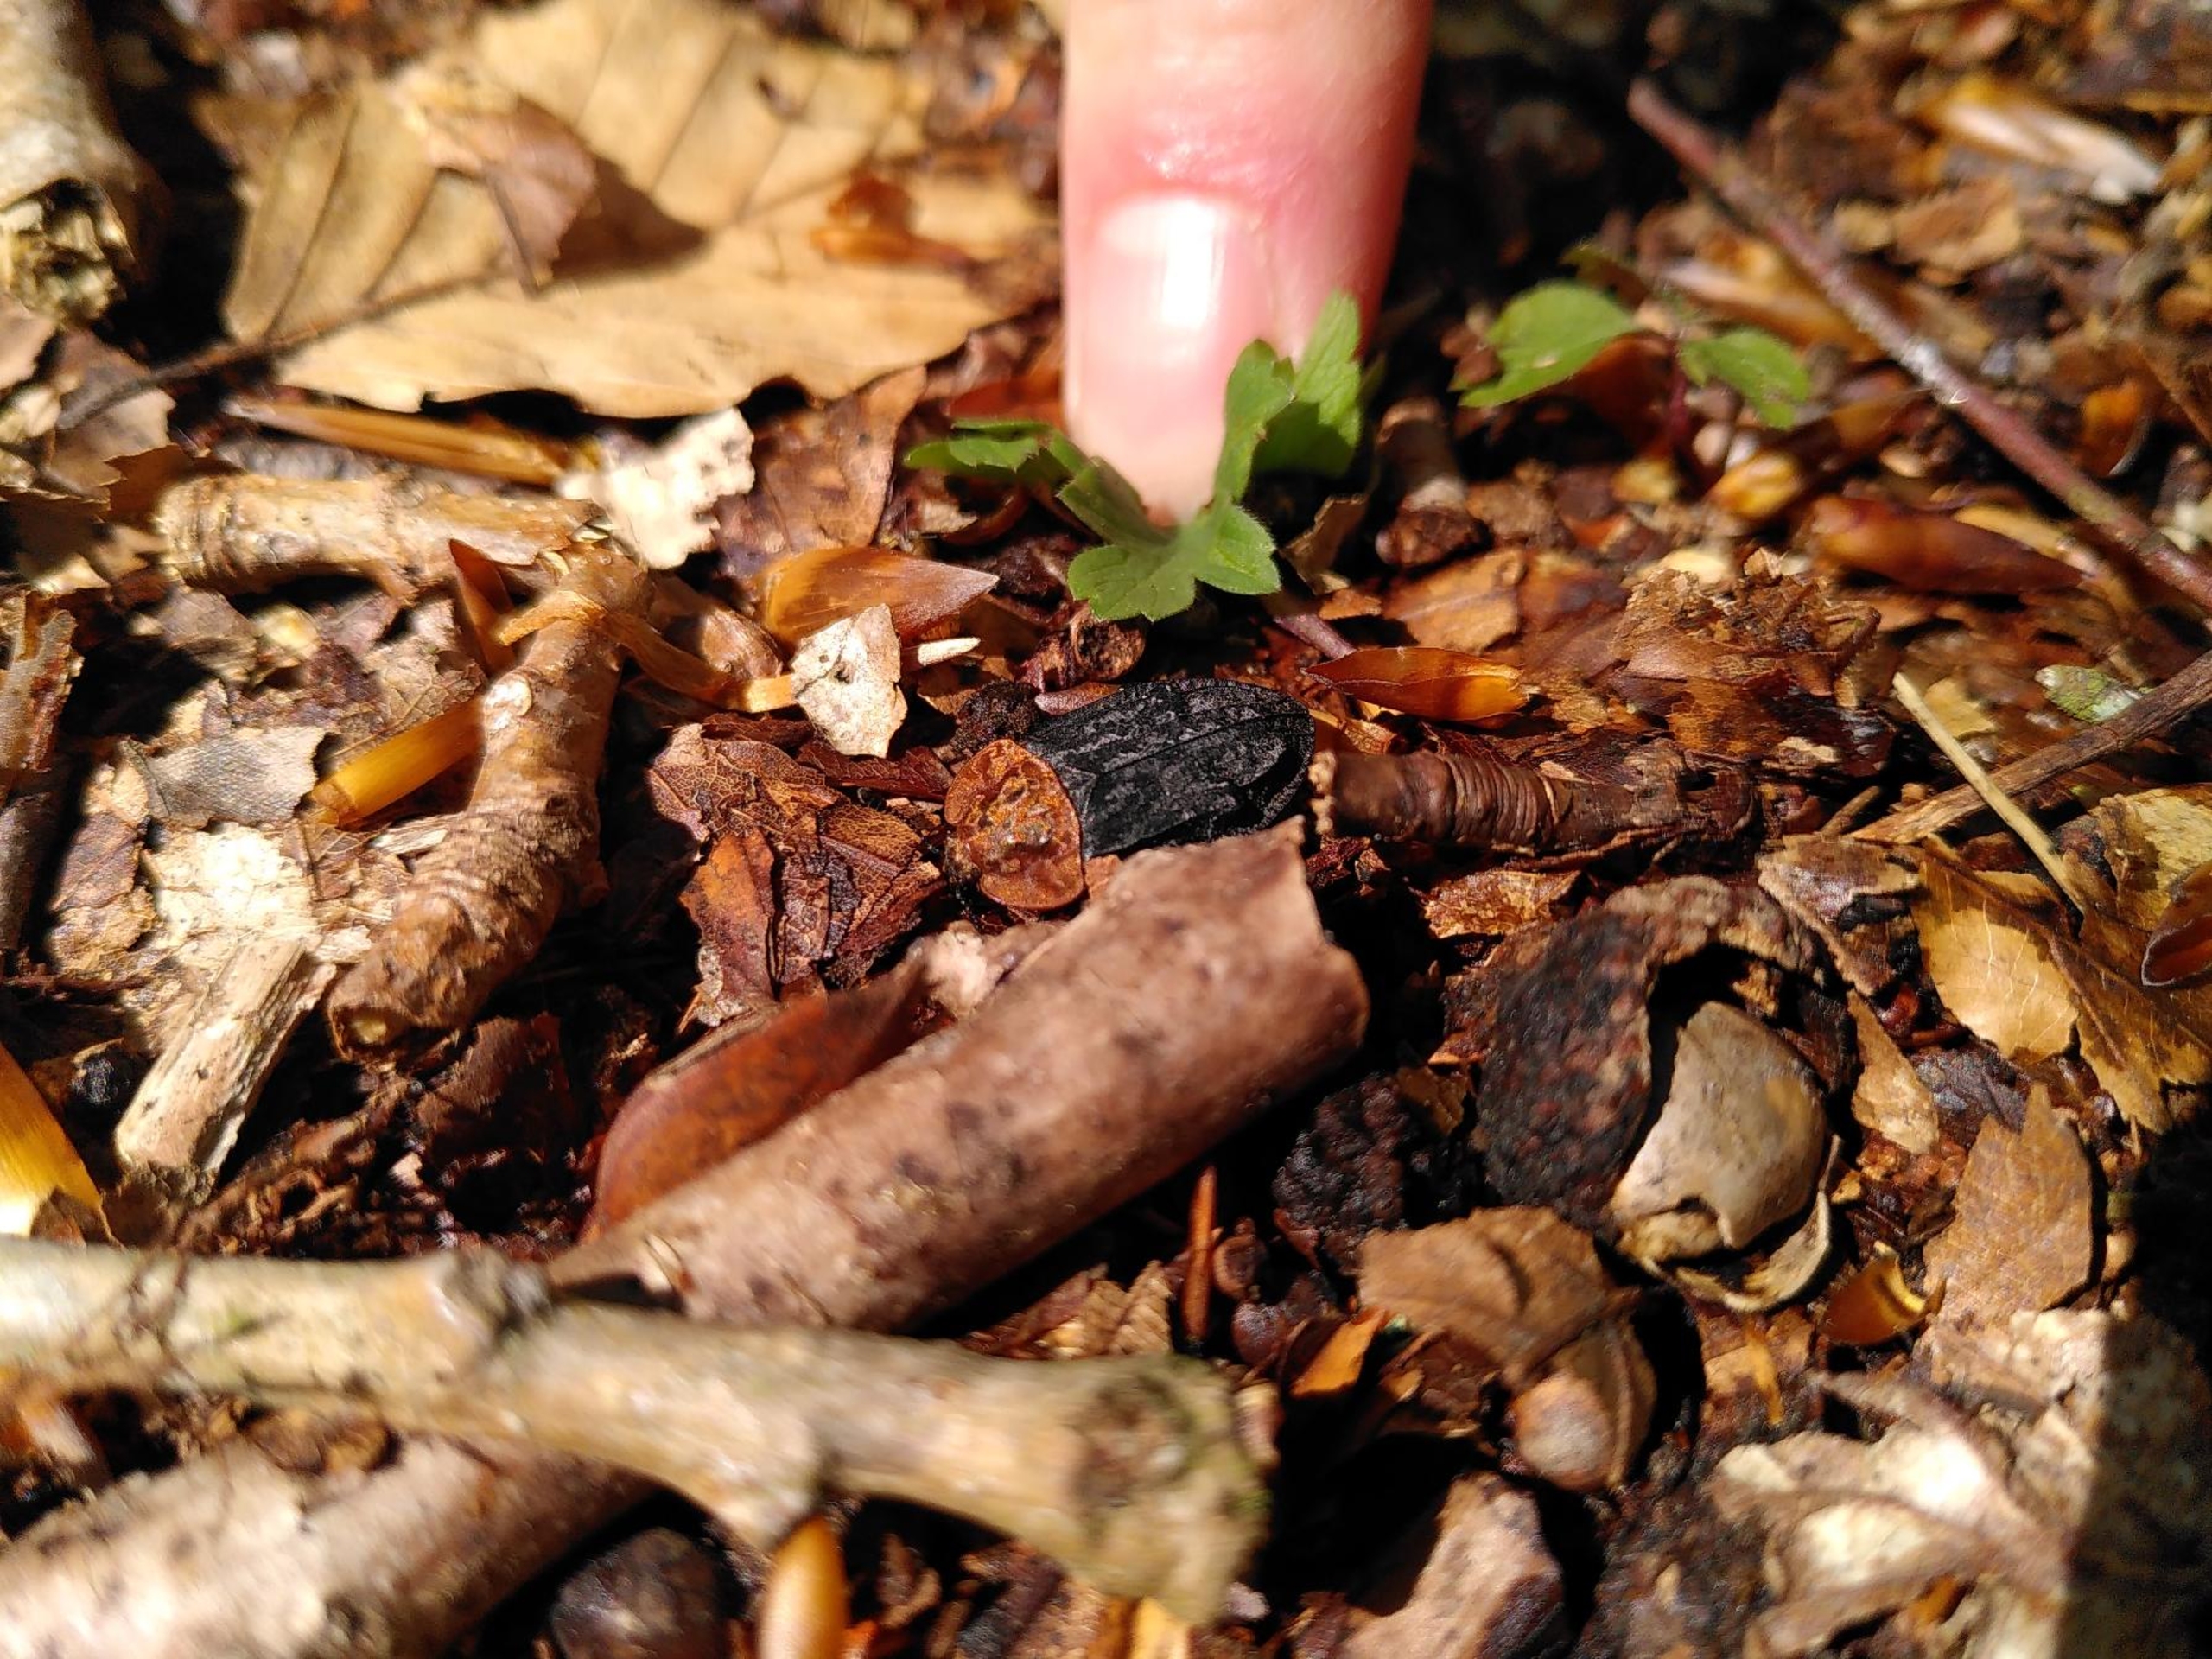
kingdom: Animalia
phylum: Arthropoda
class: Insecta
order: Coleoptera
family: Staphylinidae
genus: Oiceoptoma
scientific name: Oiceoptoma thoracicum
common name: Rødbrystet ådselbille
